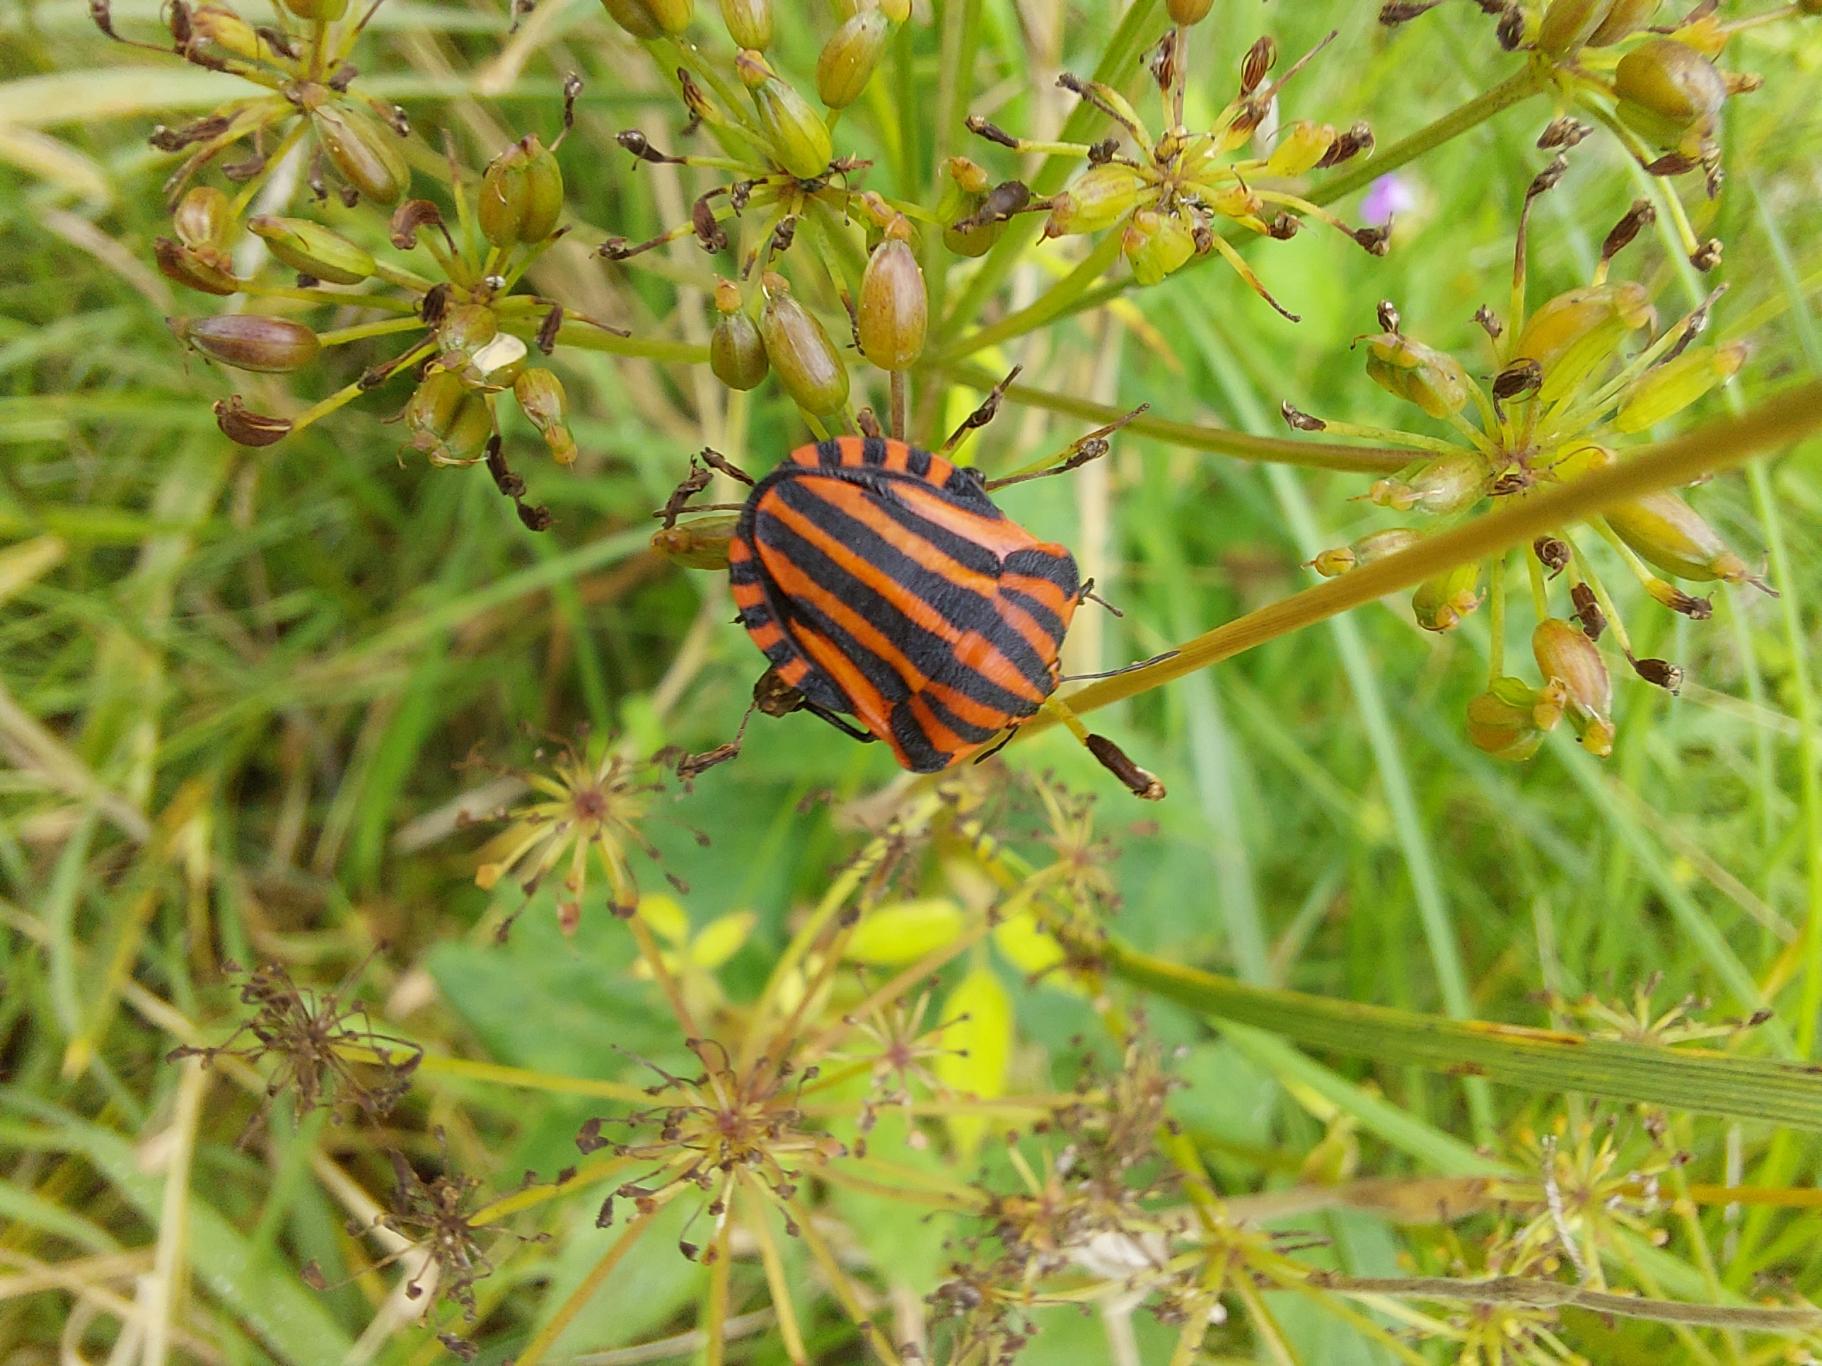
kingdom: Animalia
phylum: Arthropoda
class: Insecta
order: Hemiptera
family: Pentatomidae
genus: Graphosoma
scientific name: Graphosoma italicum
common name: Stribetæge
